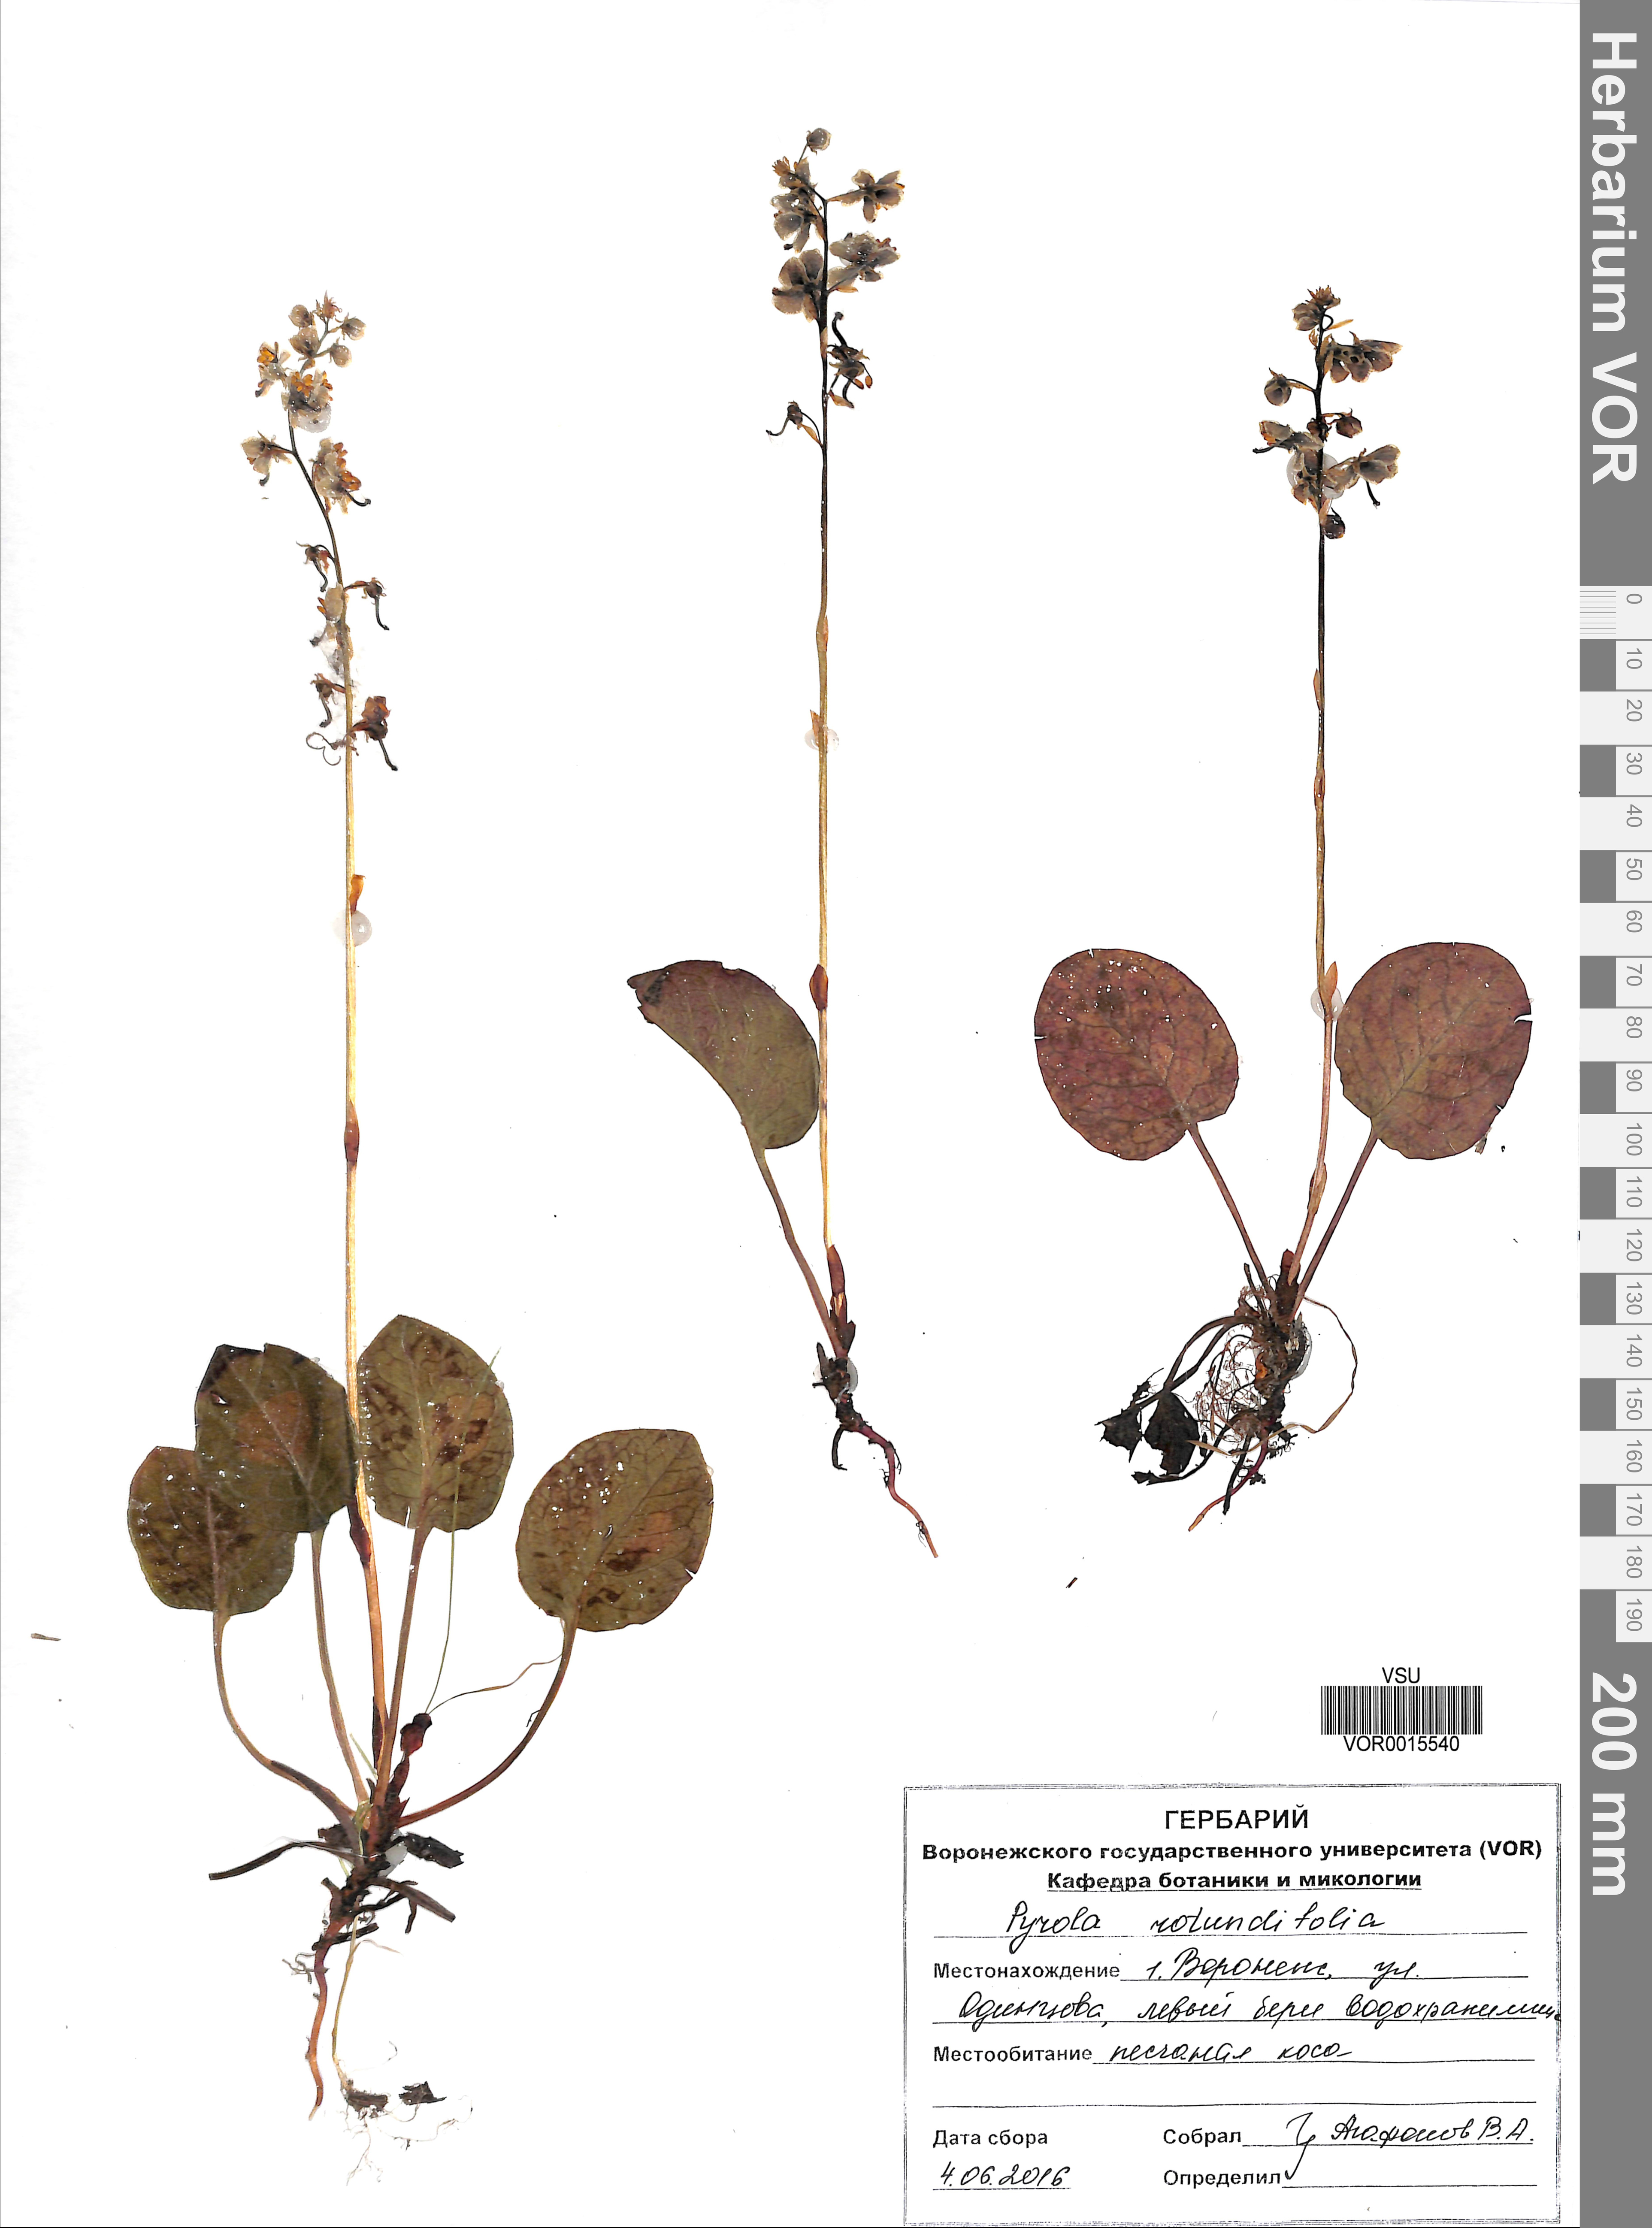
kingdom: Plantae
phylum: Tracheophyta
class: Magnoliopsida
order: Ericales
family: Ericaceae
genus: Pyrola
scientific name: Pyrola rotundifolia
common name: Round-leaved wintergreen
